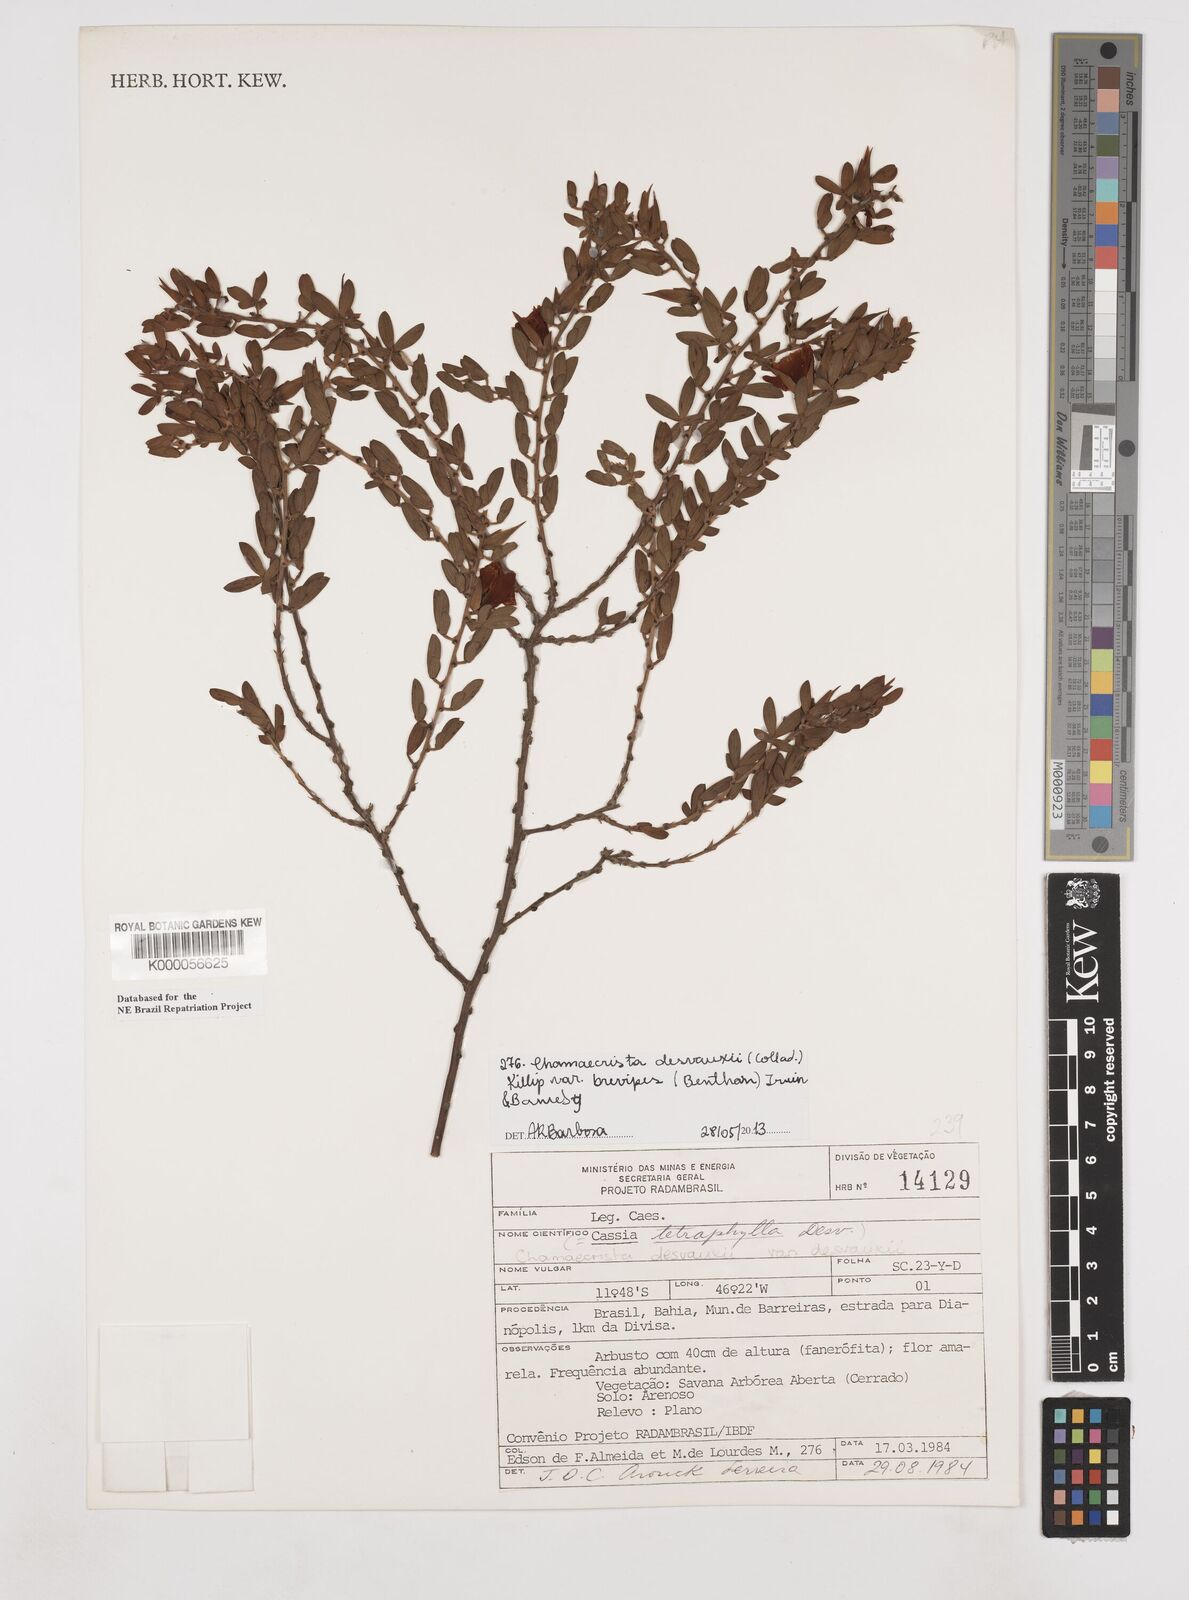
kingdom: Plantae
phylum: Tracheophyta
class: Magnoliopsida
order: Fabales
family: Fabaceae
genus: Chamaecrista
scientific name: Chamaecrista desvauxii
